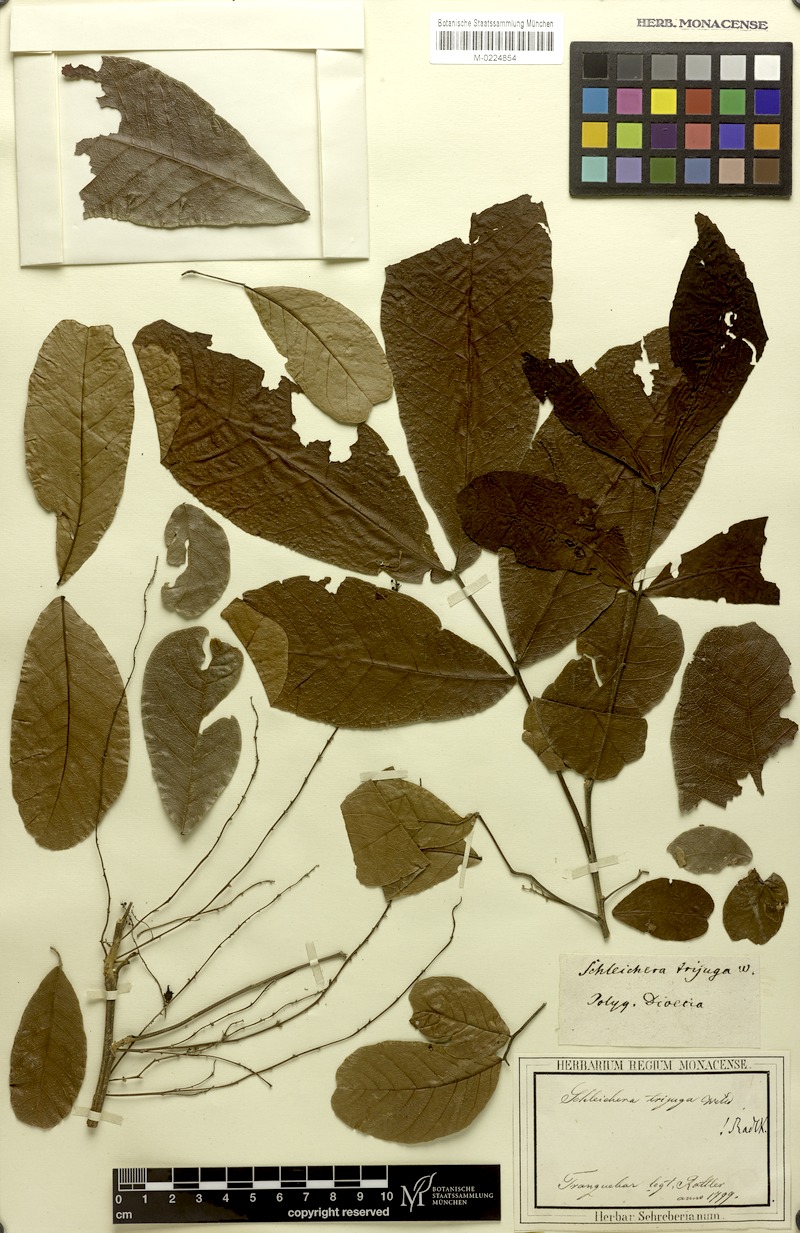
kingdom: Plantae
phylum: Tracheophyta
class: Magnoliopsida
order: Sapindales
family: Sapindaceae
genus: Schleichera
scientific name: Schleichera oleosa
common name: Malay lactree
